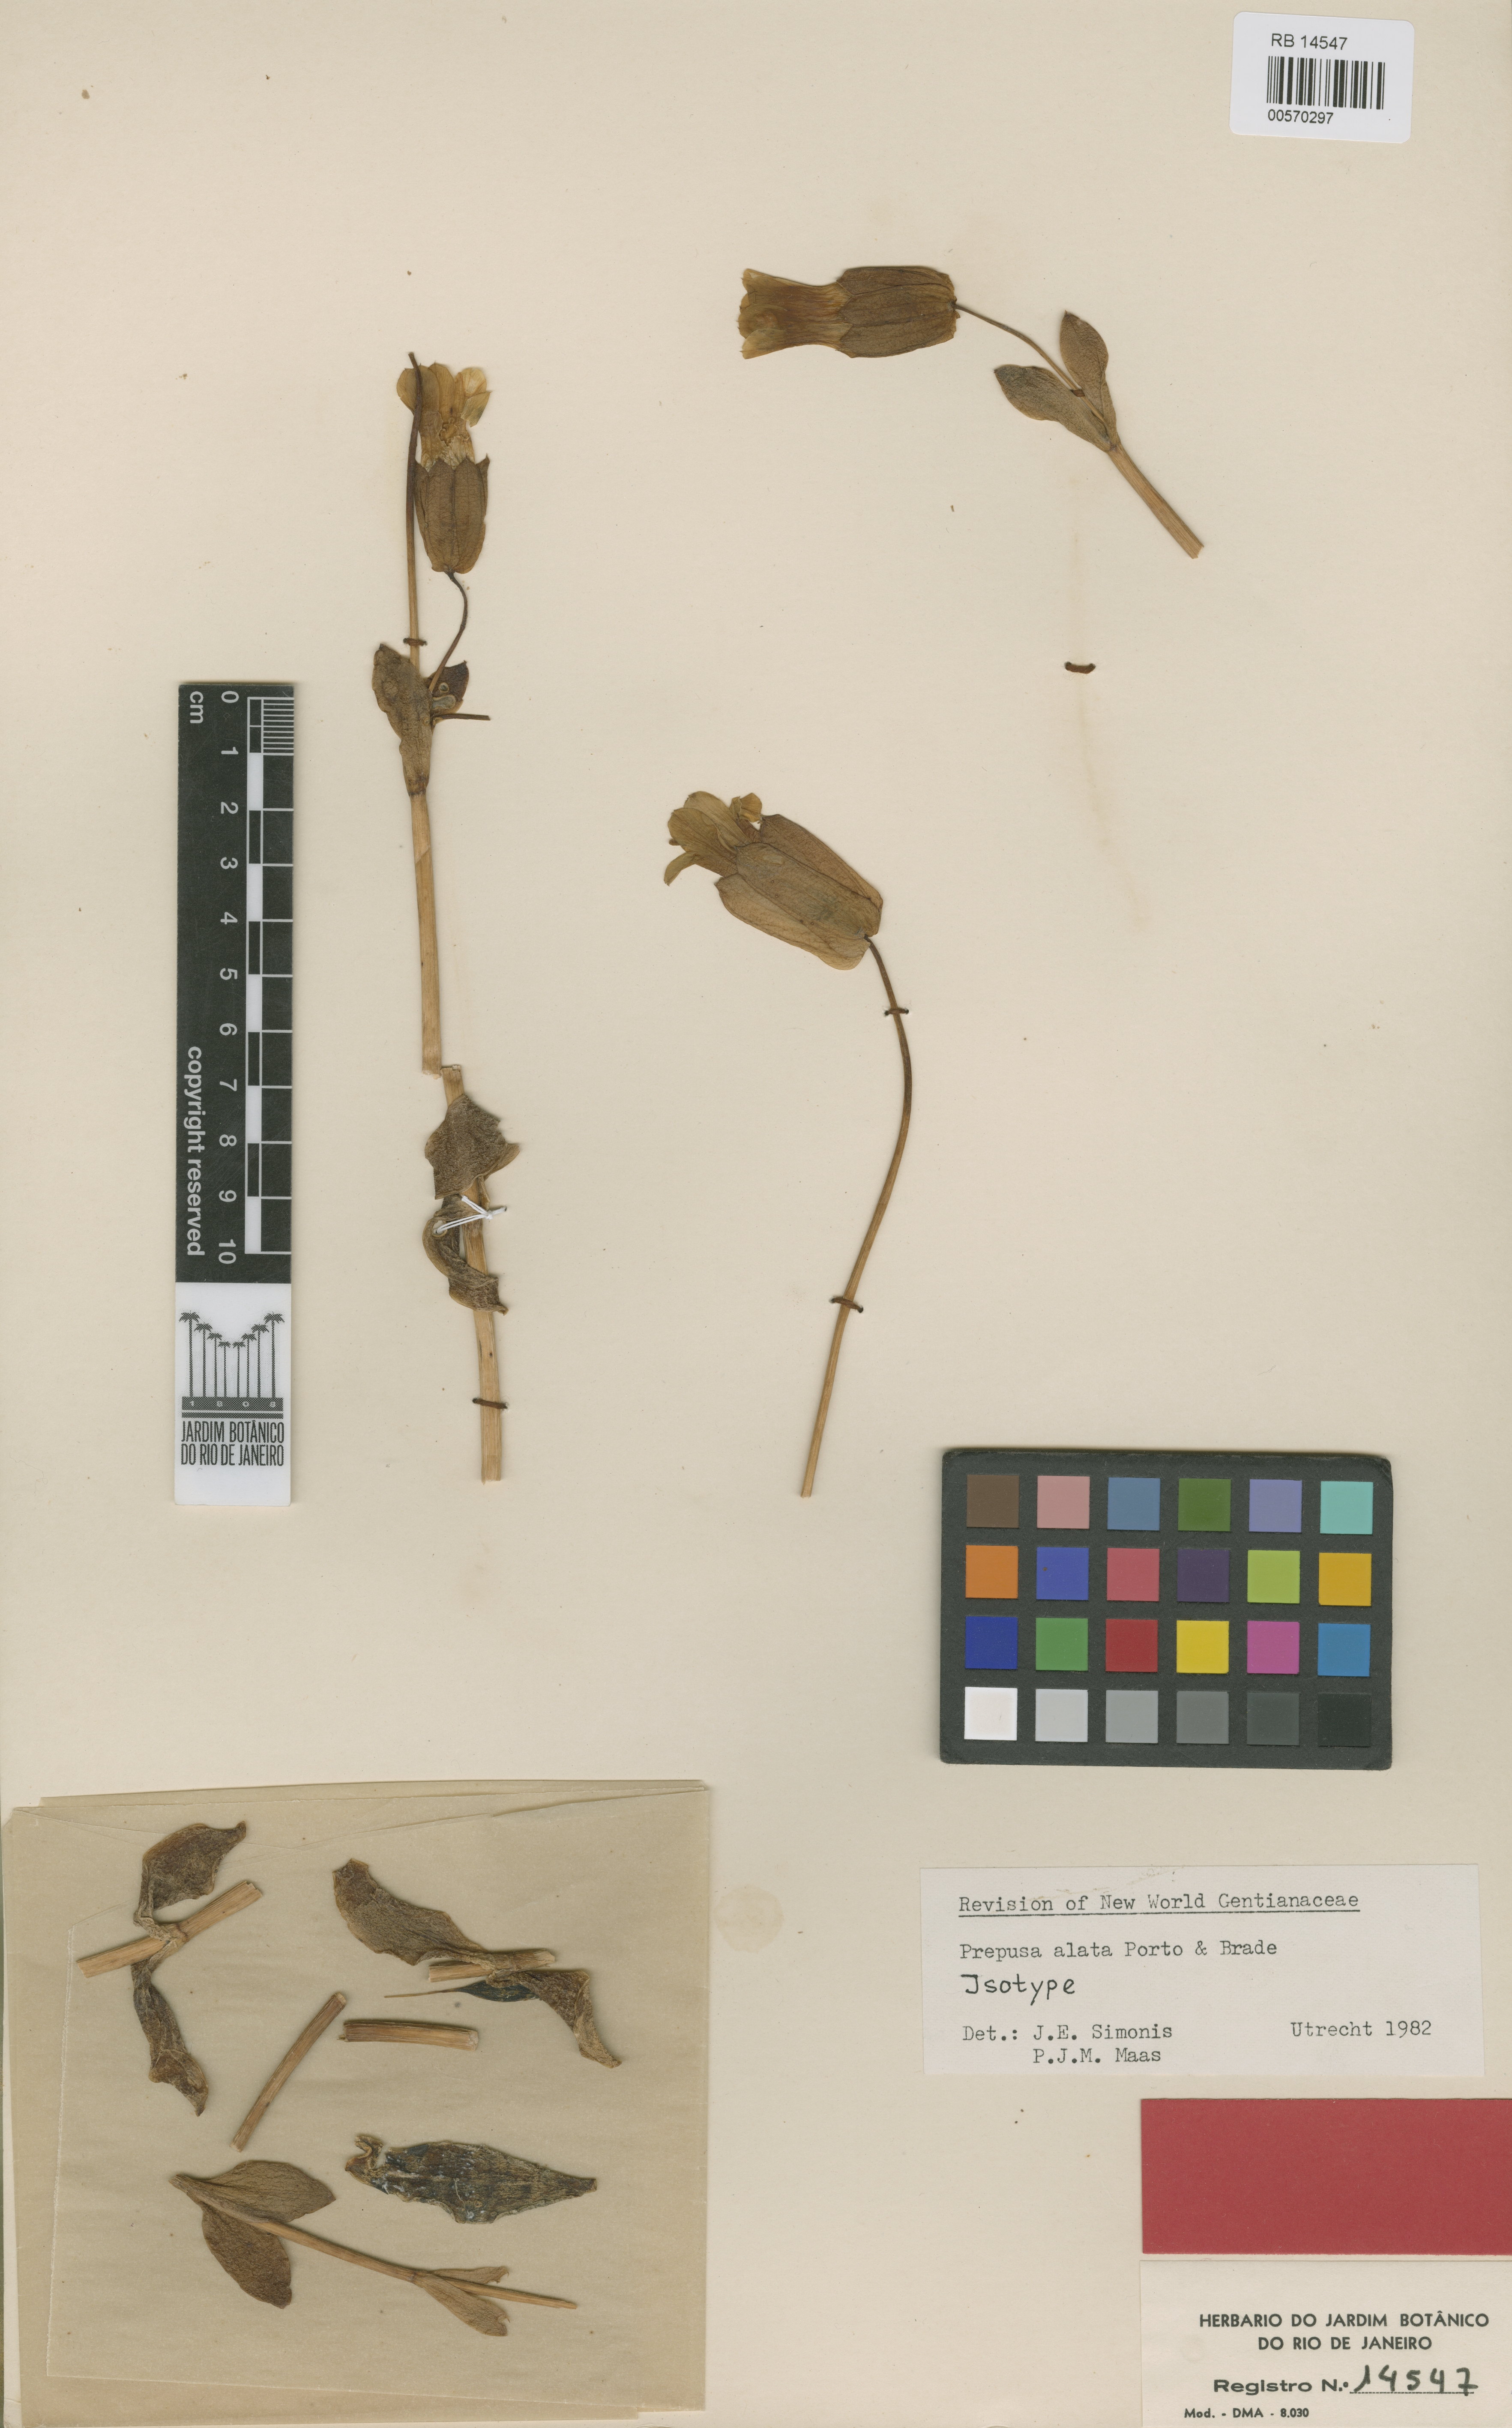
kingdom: Plantae
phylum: Tracheophyta
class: Magnoliopsida
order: Gentianales
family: Gentianaceae
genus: Prepusa
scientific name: Prepusa alata
